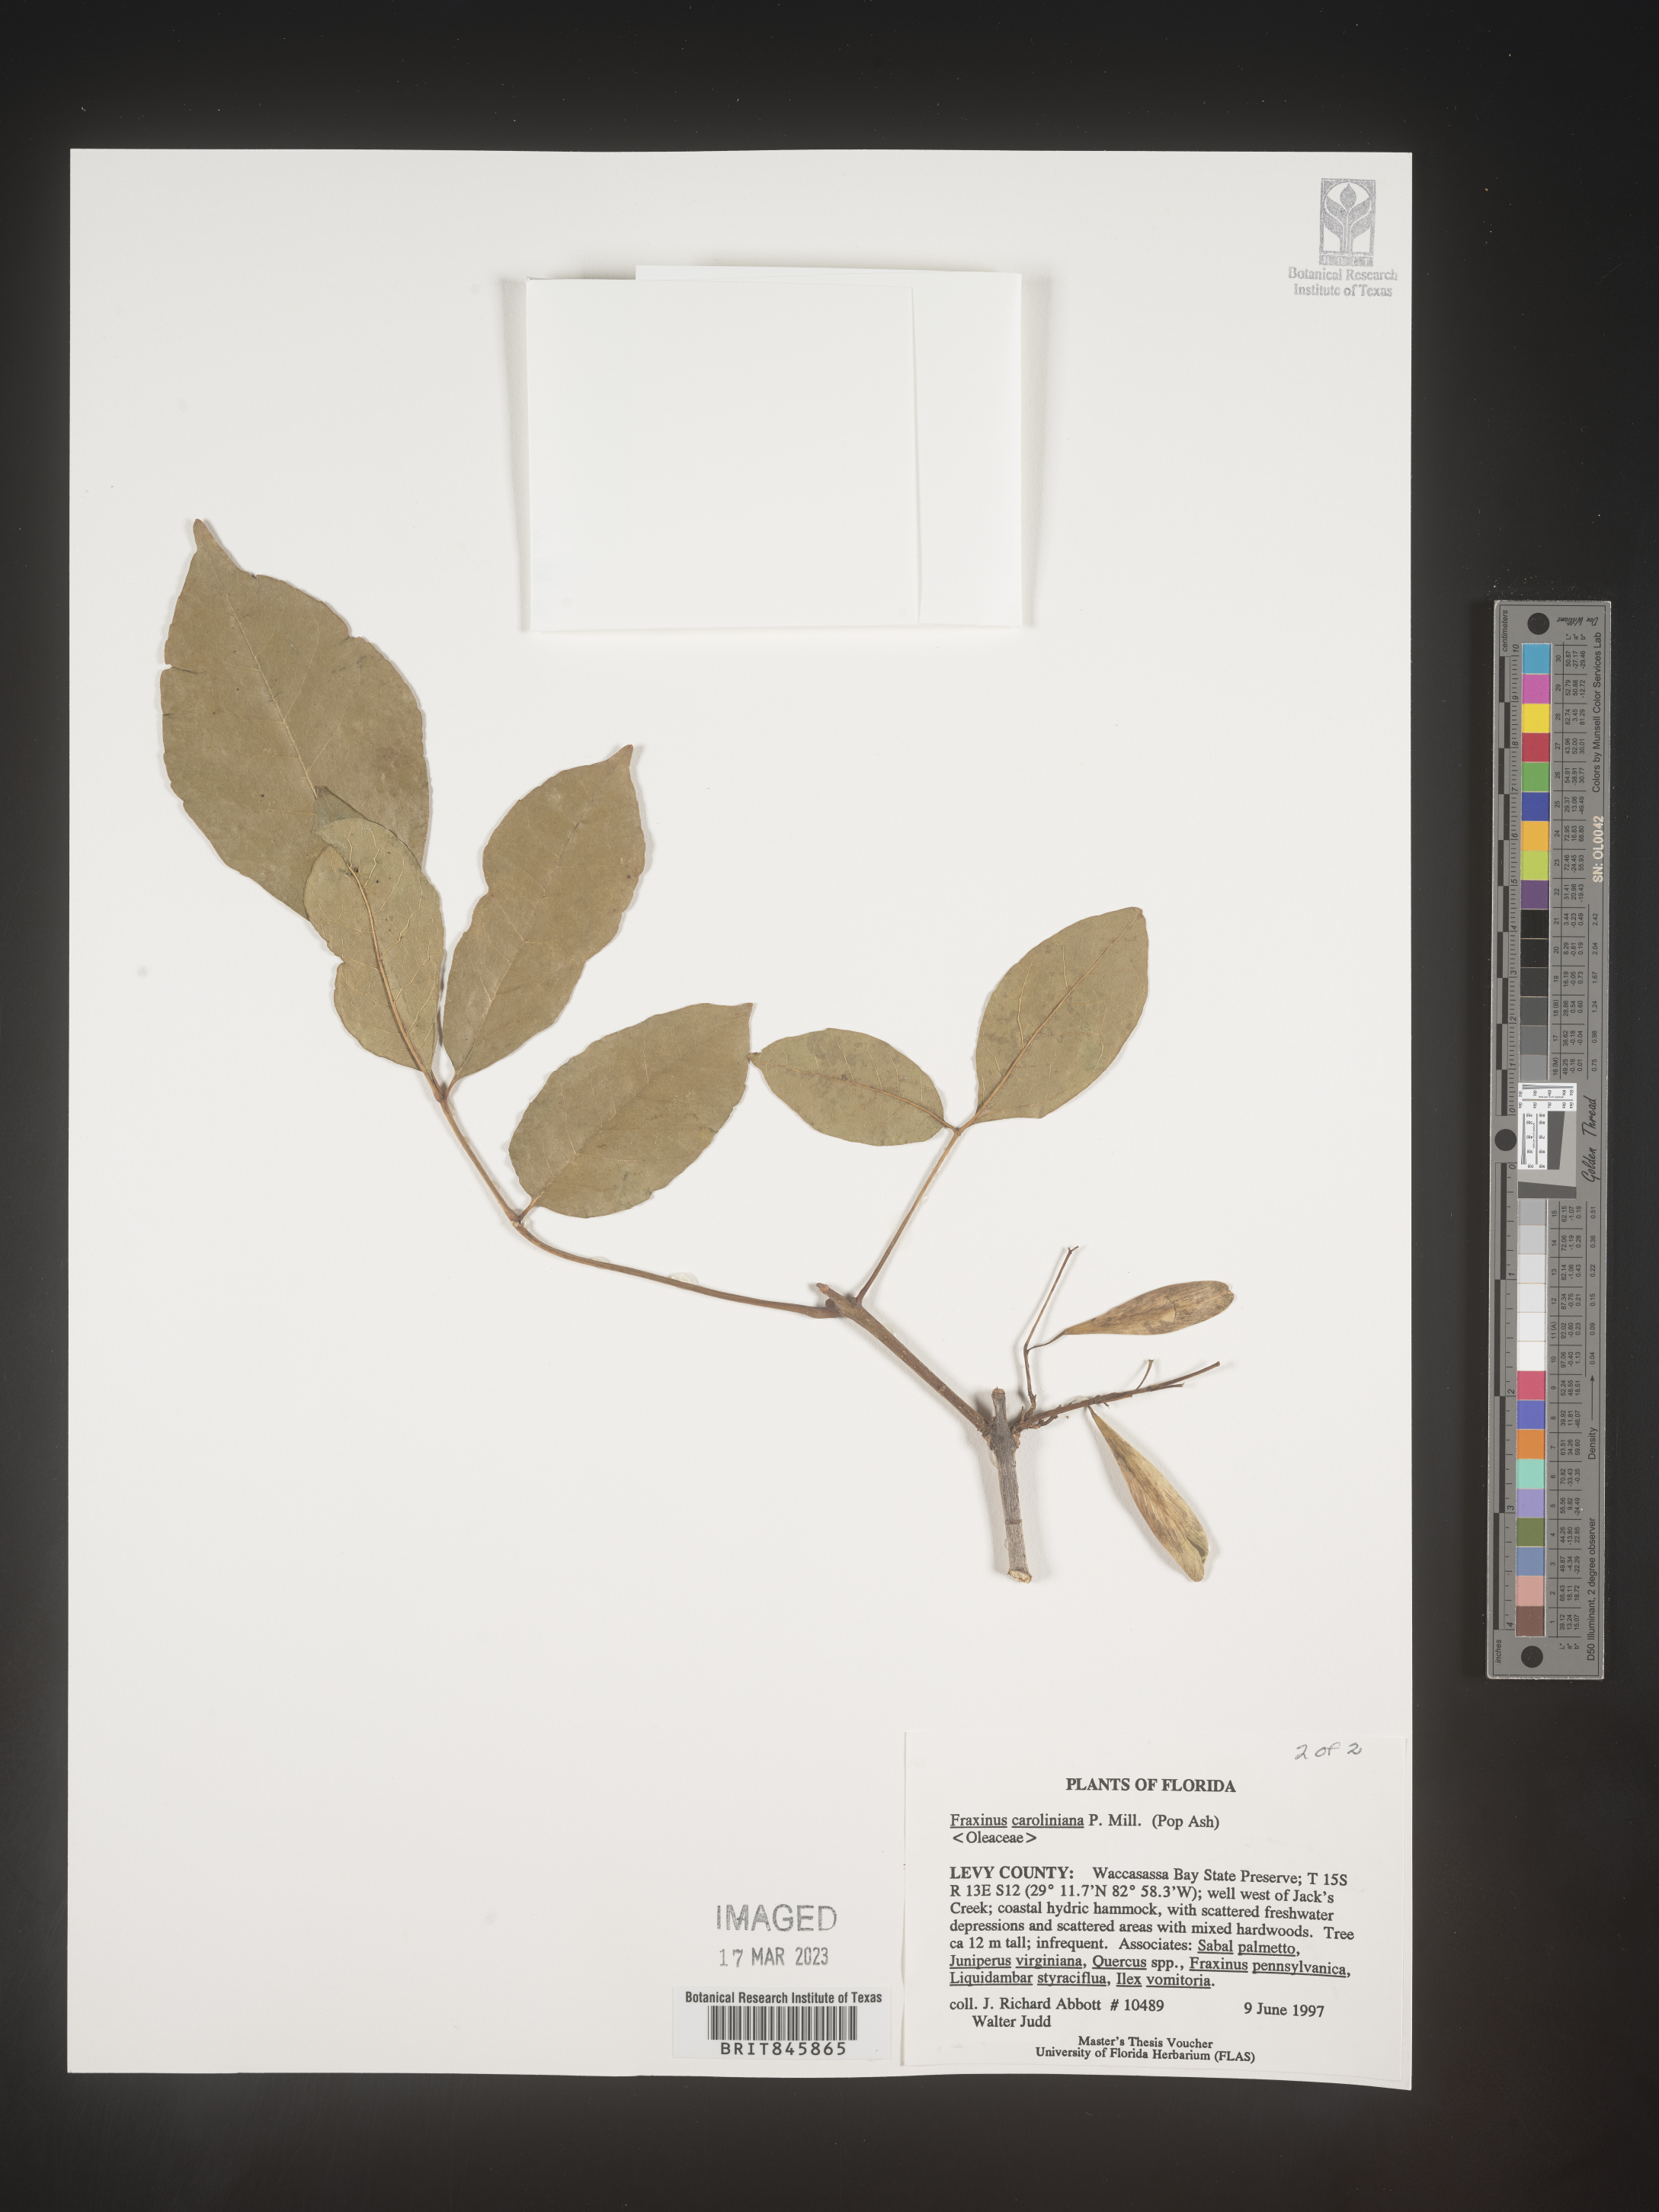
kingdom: Plantae
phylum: Tracheophyta
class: Magnoliopsida
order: Lamiales
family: Oleaceae
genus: Fraxinus
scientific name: Fraxinus caroliniana
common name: Carolina ash
